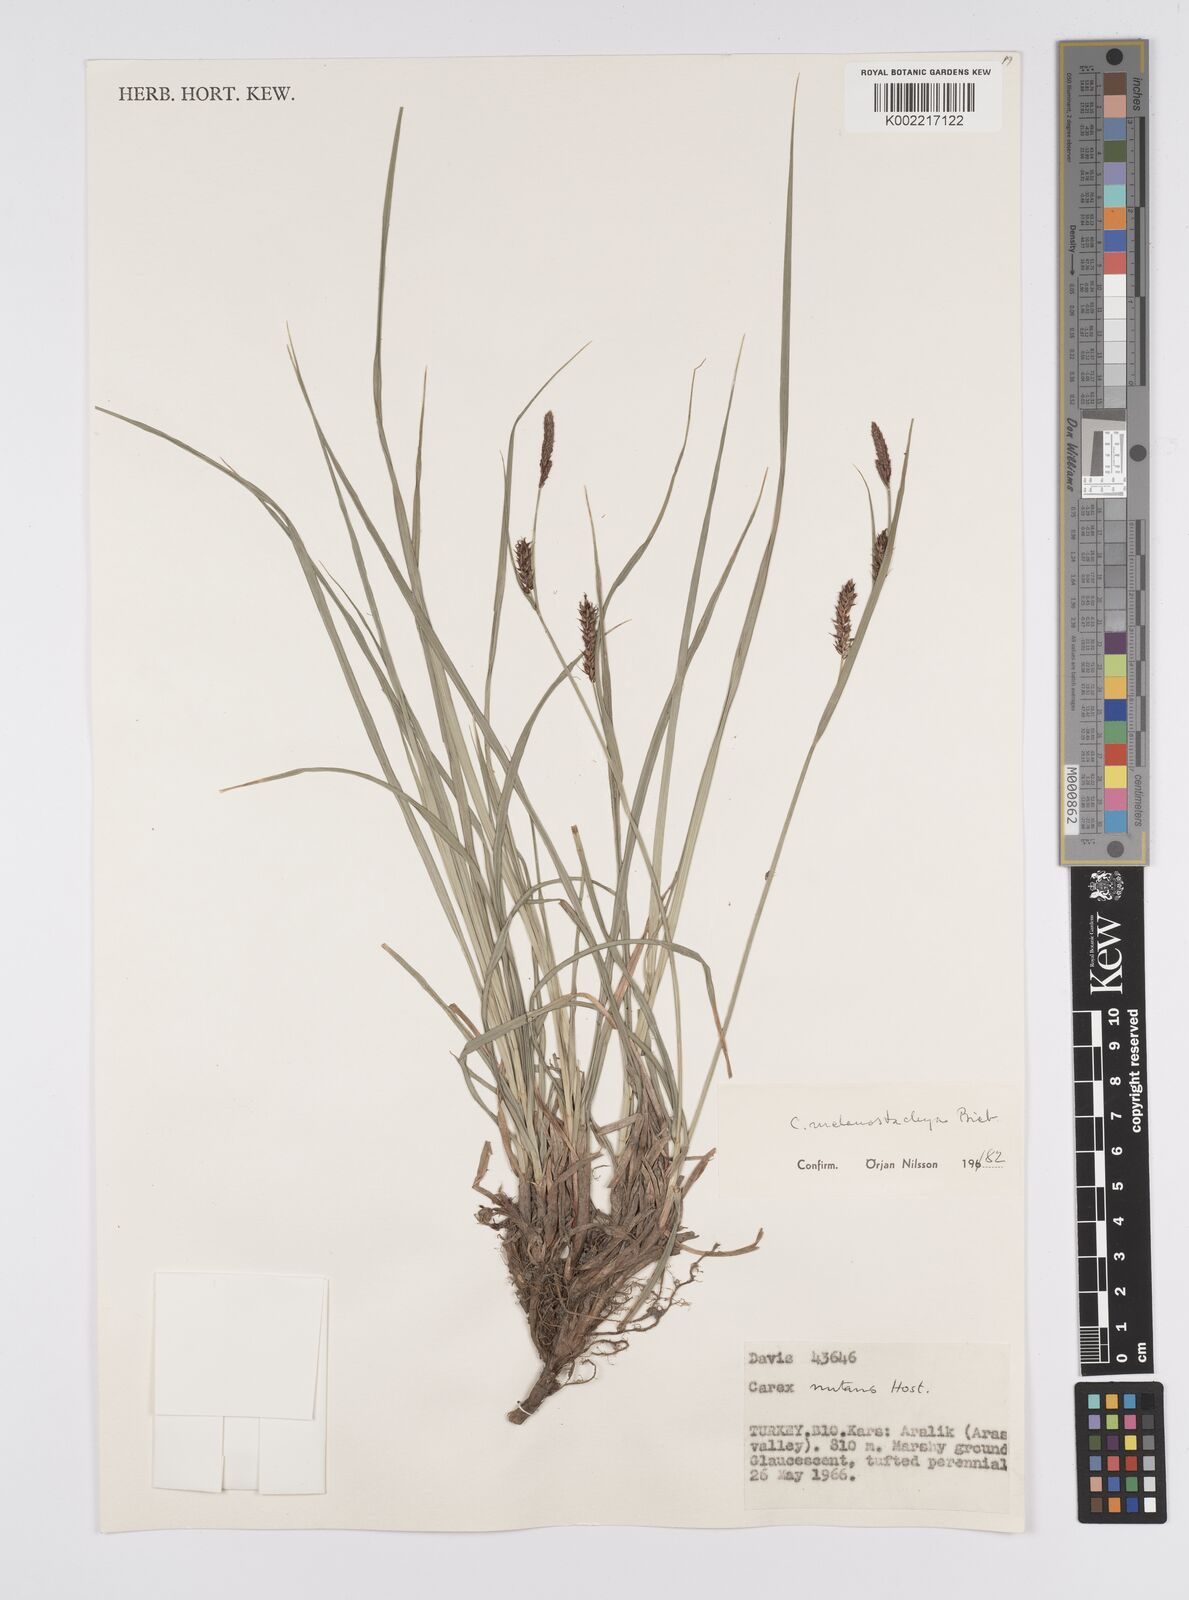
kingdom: Plantae
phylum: Tracheophyta
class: Liliopsida
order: Poales
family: Cyperaceae
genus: Carex
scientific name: Carex melanostachya
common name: Black-spiked sedge
